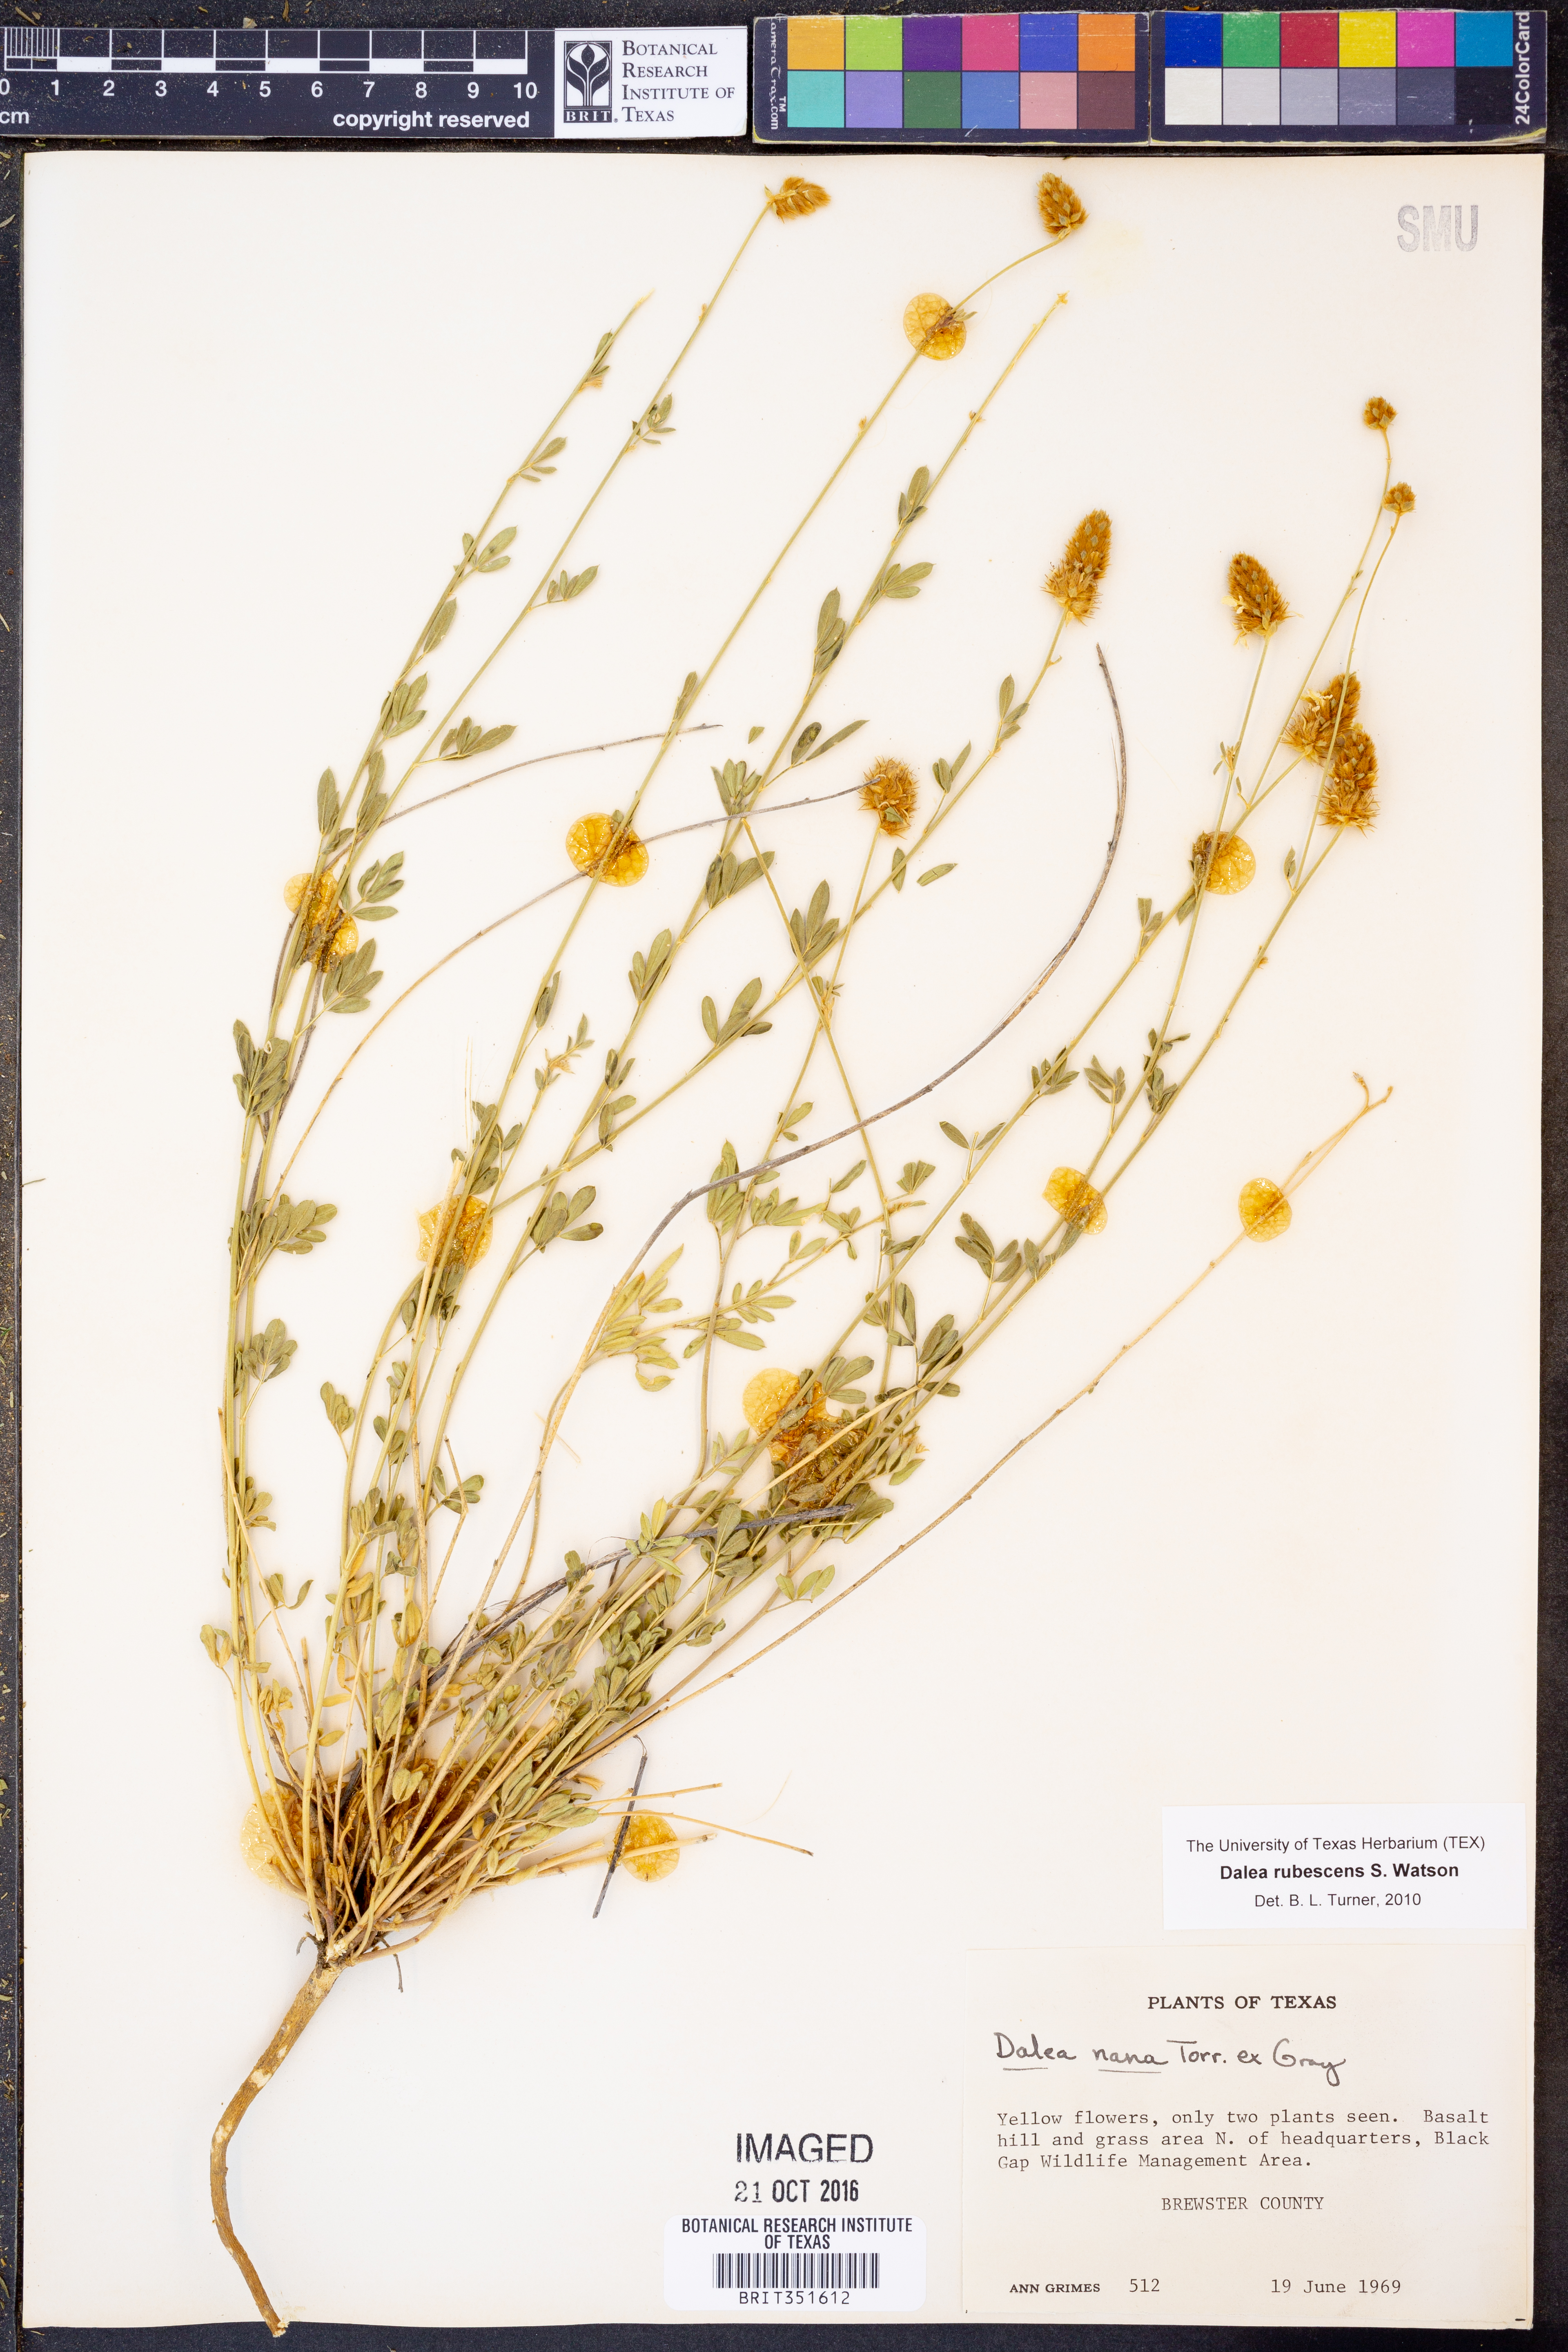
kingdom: Plantae
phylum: Tracheophyta
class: Magnoliopsida
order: Fabales
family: Fabaceae
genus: Dalea
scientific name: Dalea rubescens
